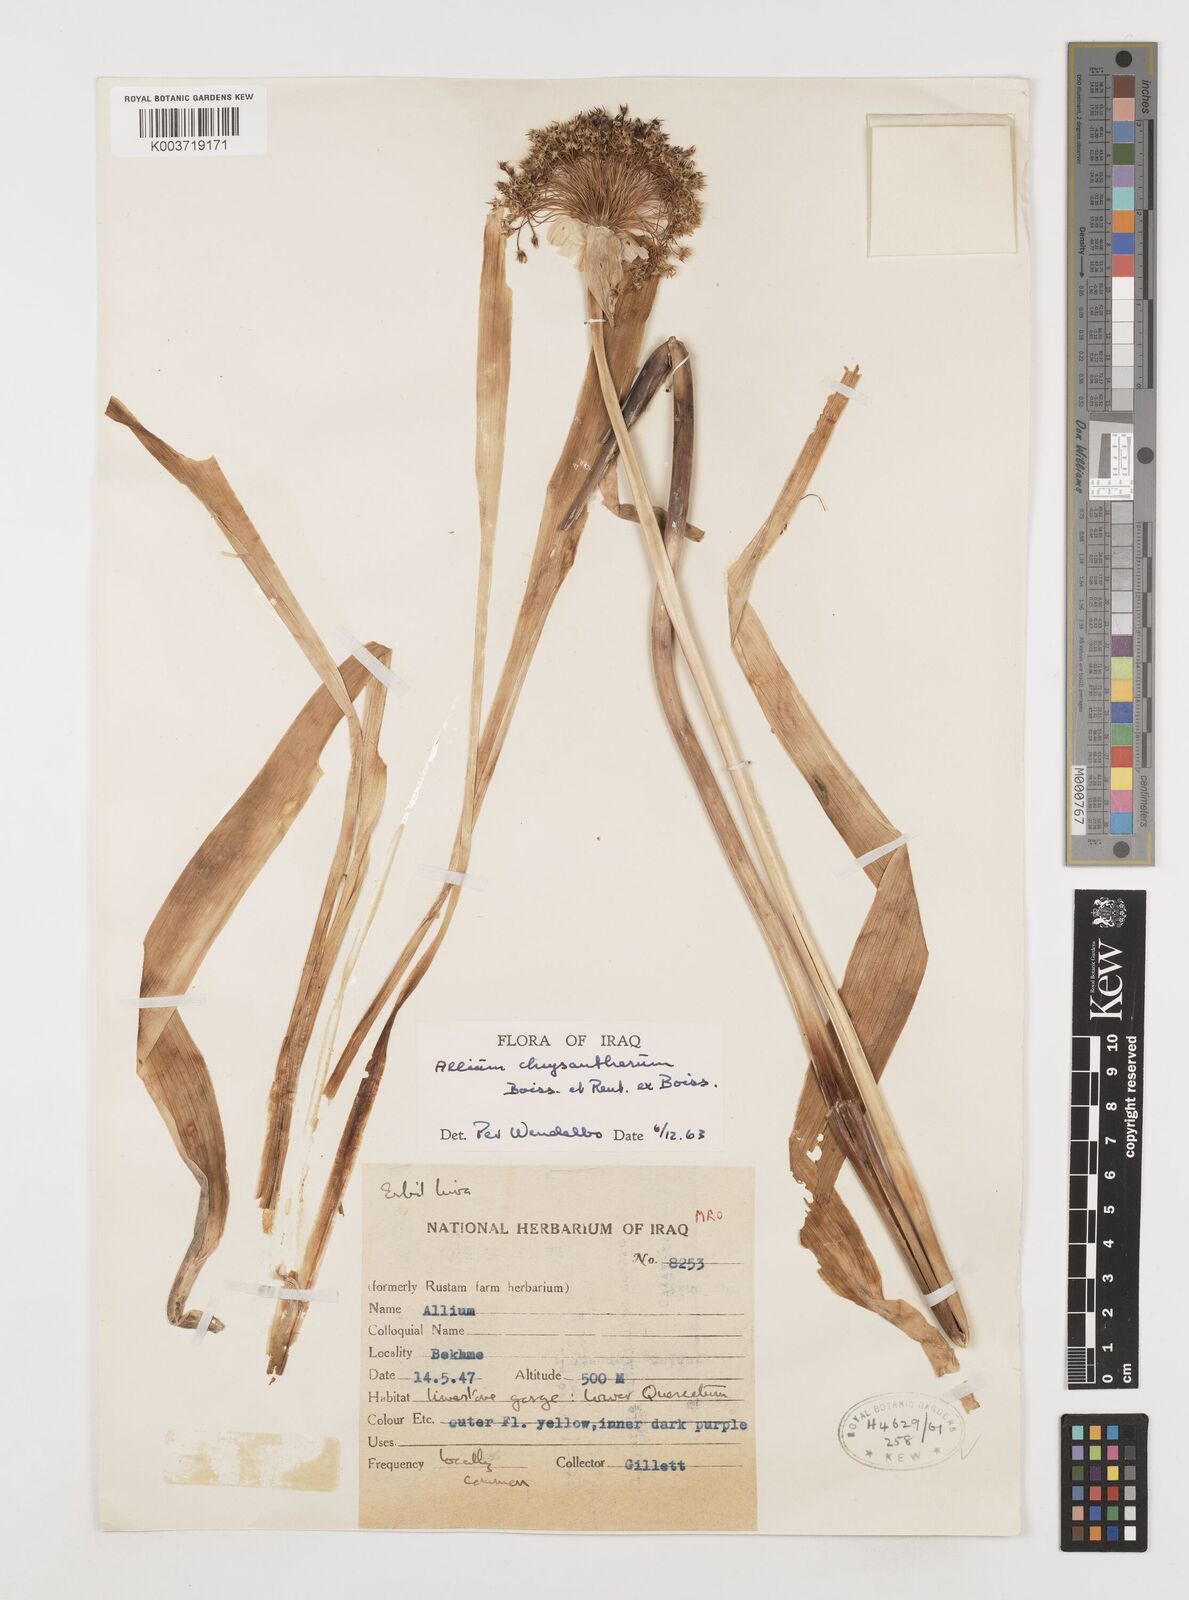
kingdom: Plantae
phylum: Tracheophyta
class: Liliopsida
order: Asparagales
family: Amaryllidaceae
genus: Allium
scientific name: Allium chrysantherum
